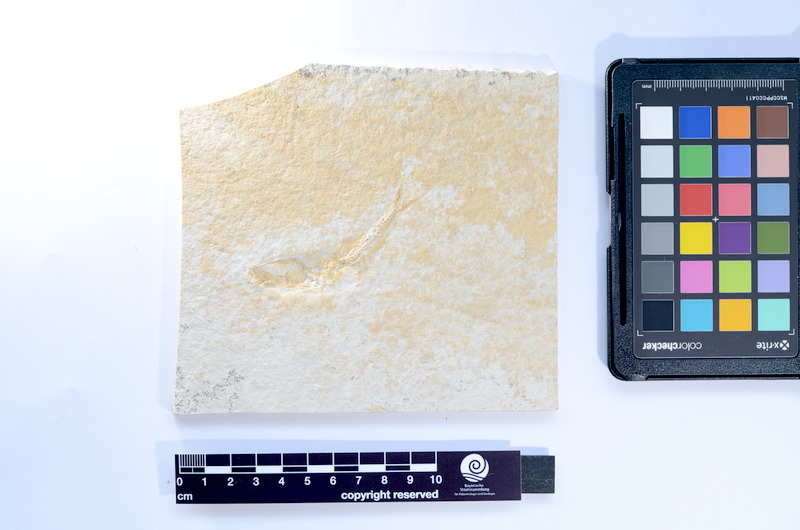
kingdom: Animalia
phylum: Chordata
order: Salmoniformes
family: Orthogonikleithridae
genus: Leptolepides
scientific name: Leptolepides
